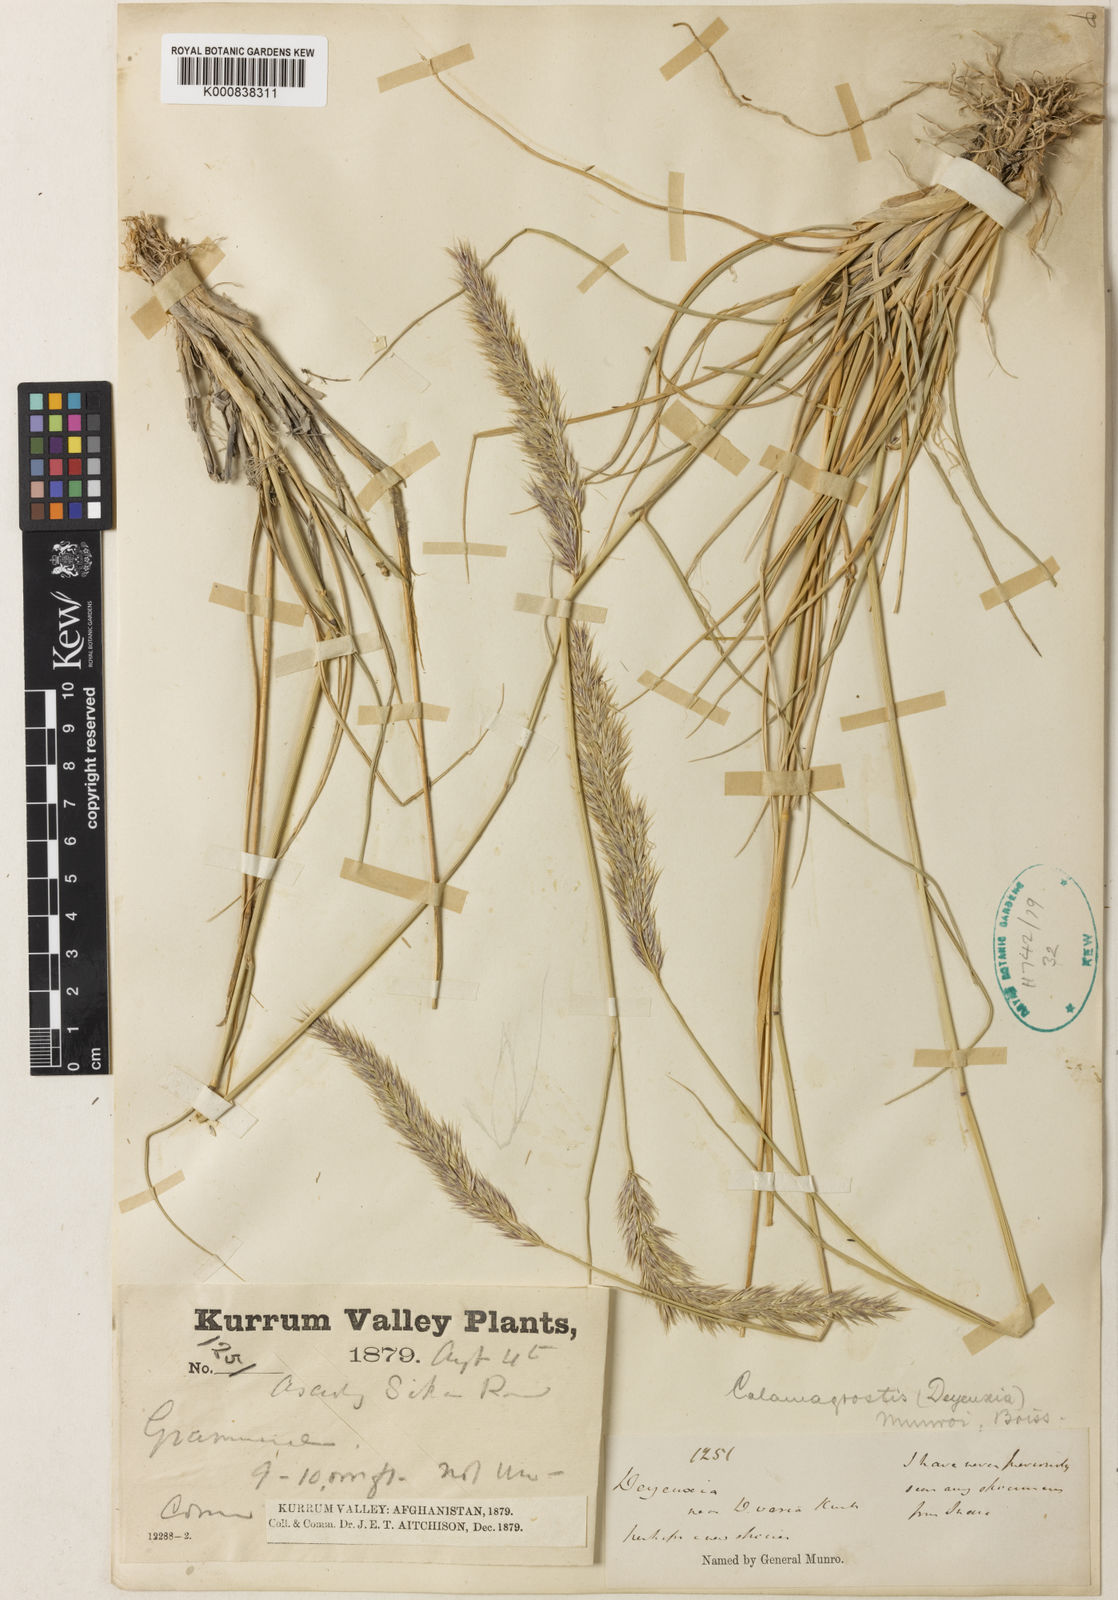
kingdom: Plantae
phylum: Tracheophyta
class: Liliopsida
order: Poales
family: Poaceae
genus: Calamagrostis
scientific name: Calamagrostis munroi
